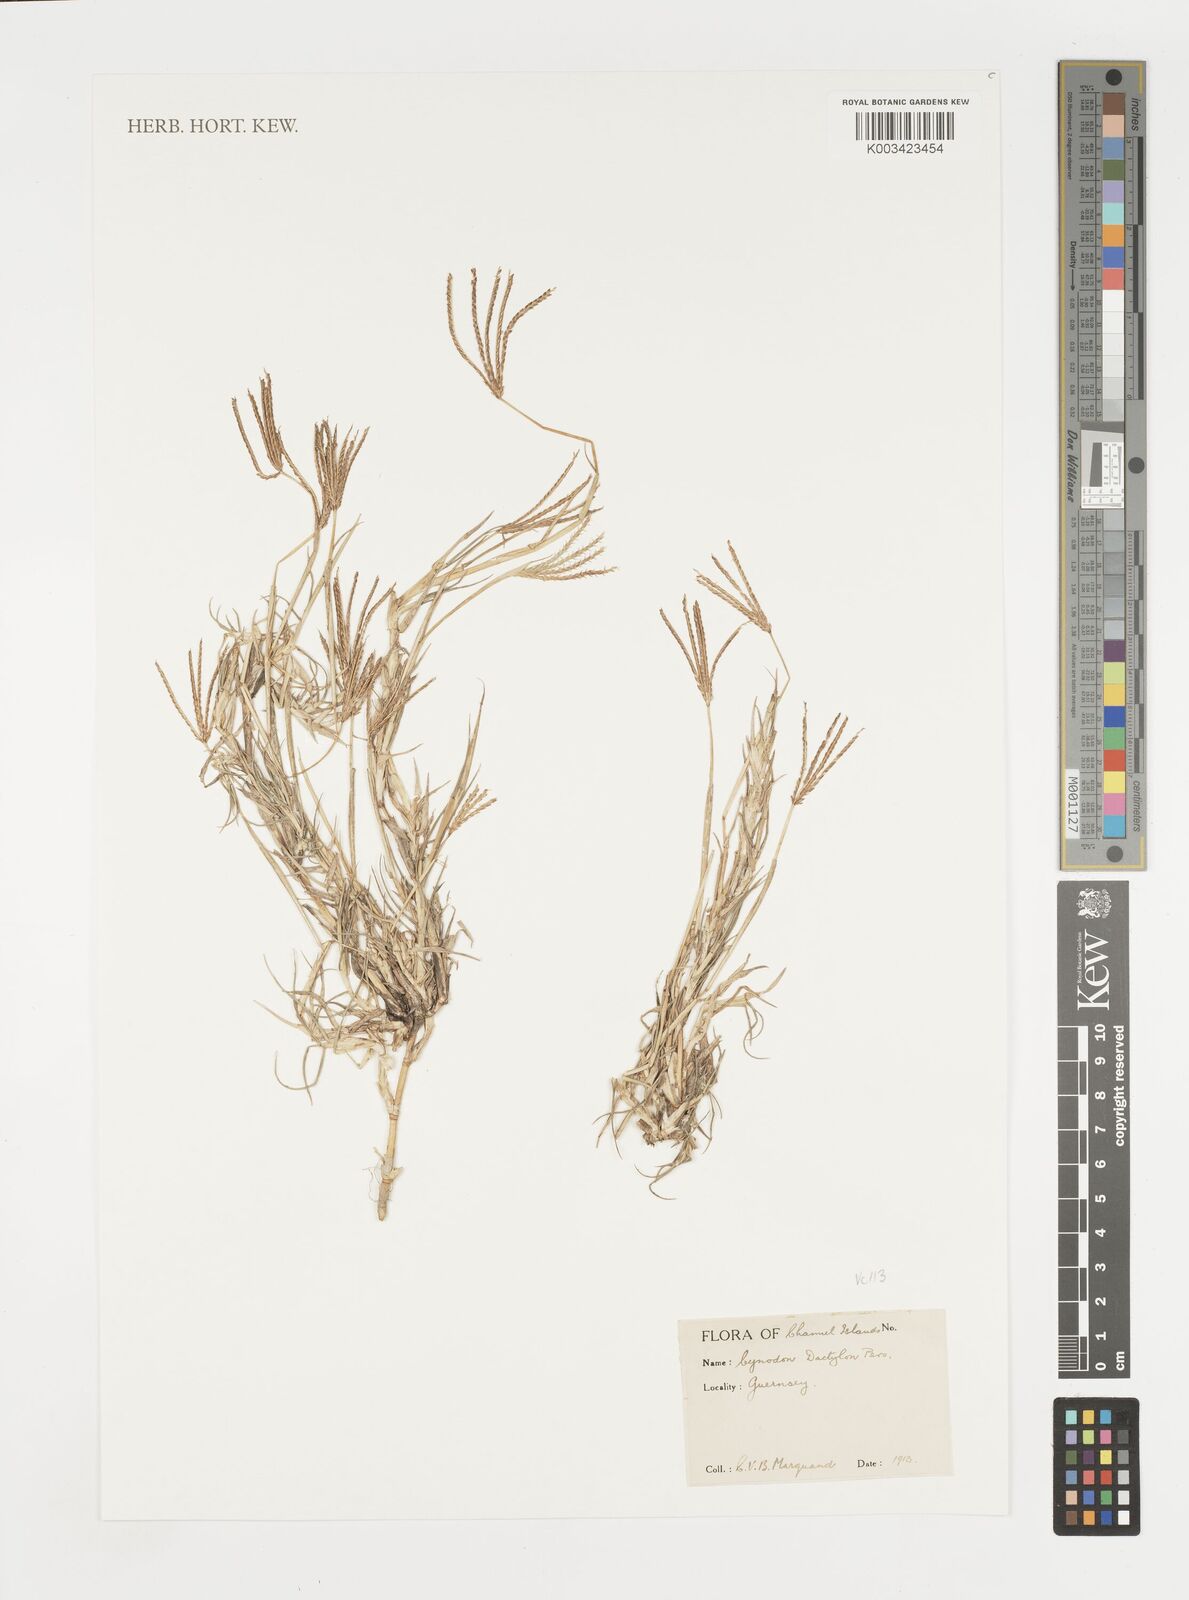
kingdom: Plantae
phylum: Tracheophyta
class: Liliopsida
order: Poales
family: Poaceae
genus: Cynodon
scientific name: Cynodon dactylon
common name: Bermuda grass
